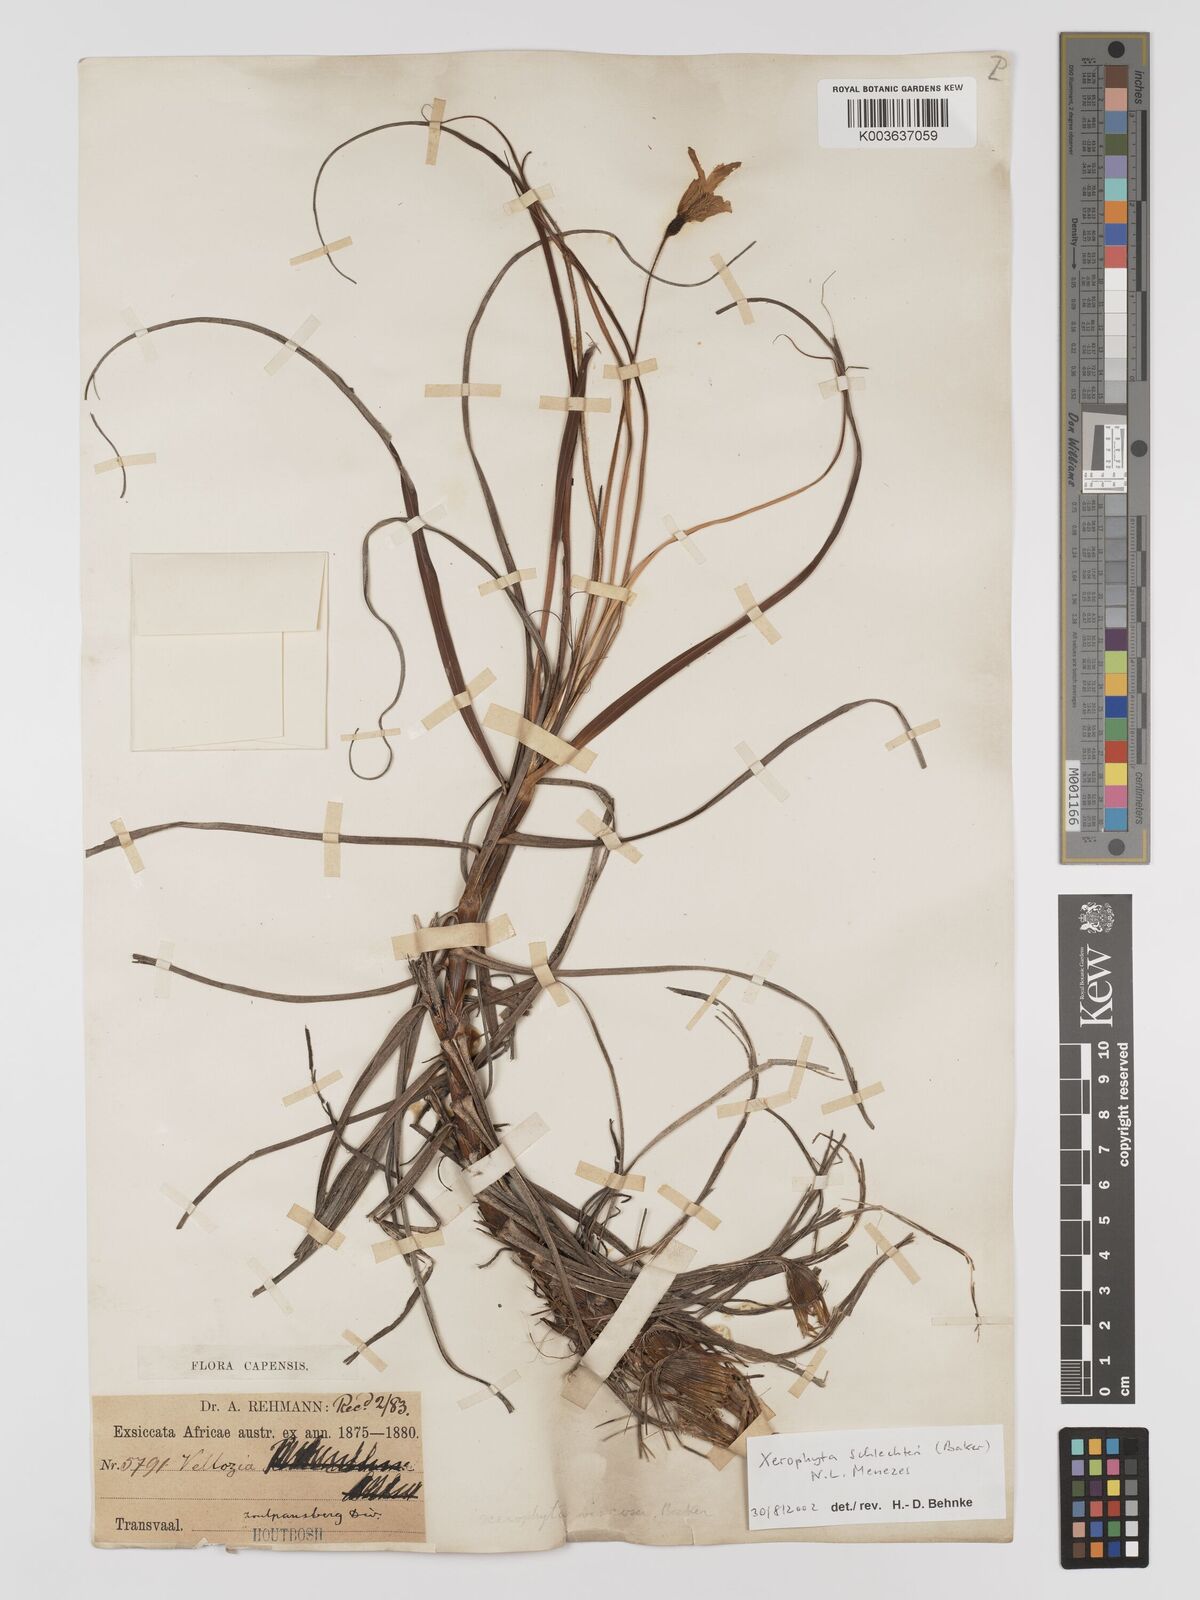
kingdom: Plantae
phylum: Tracheophyta
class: Liliopsida
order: Pandanales
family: Velloziaceae
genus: Xerophyta
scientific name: Xerophyta schlechteri
